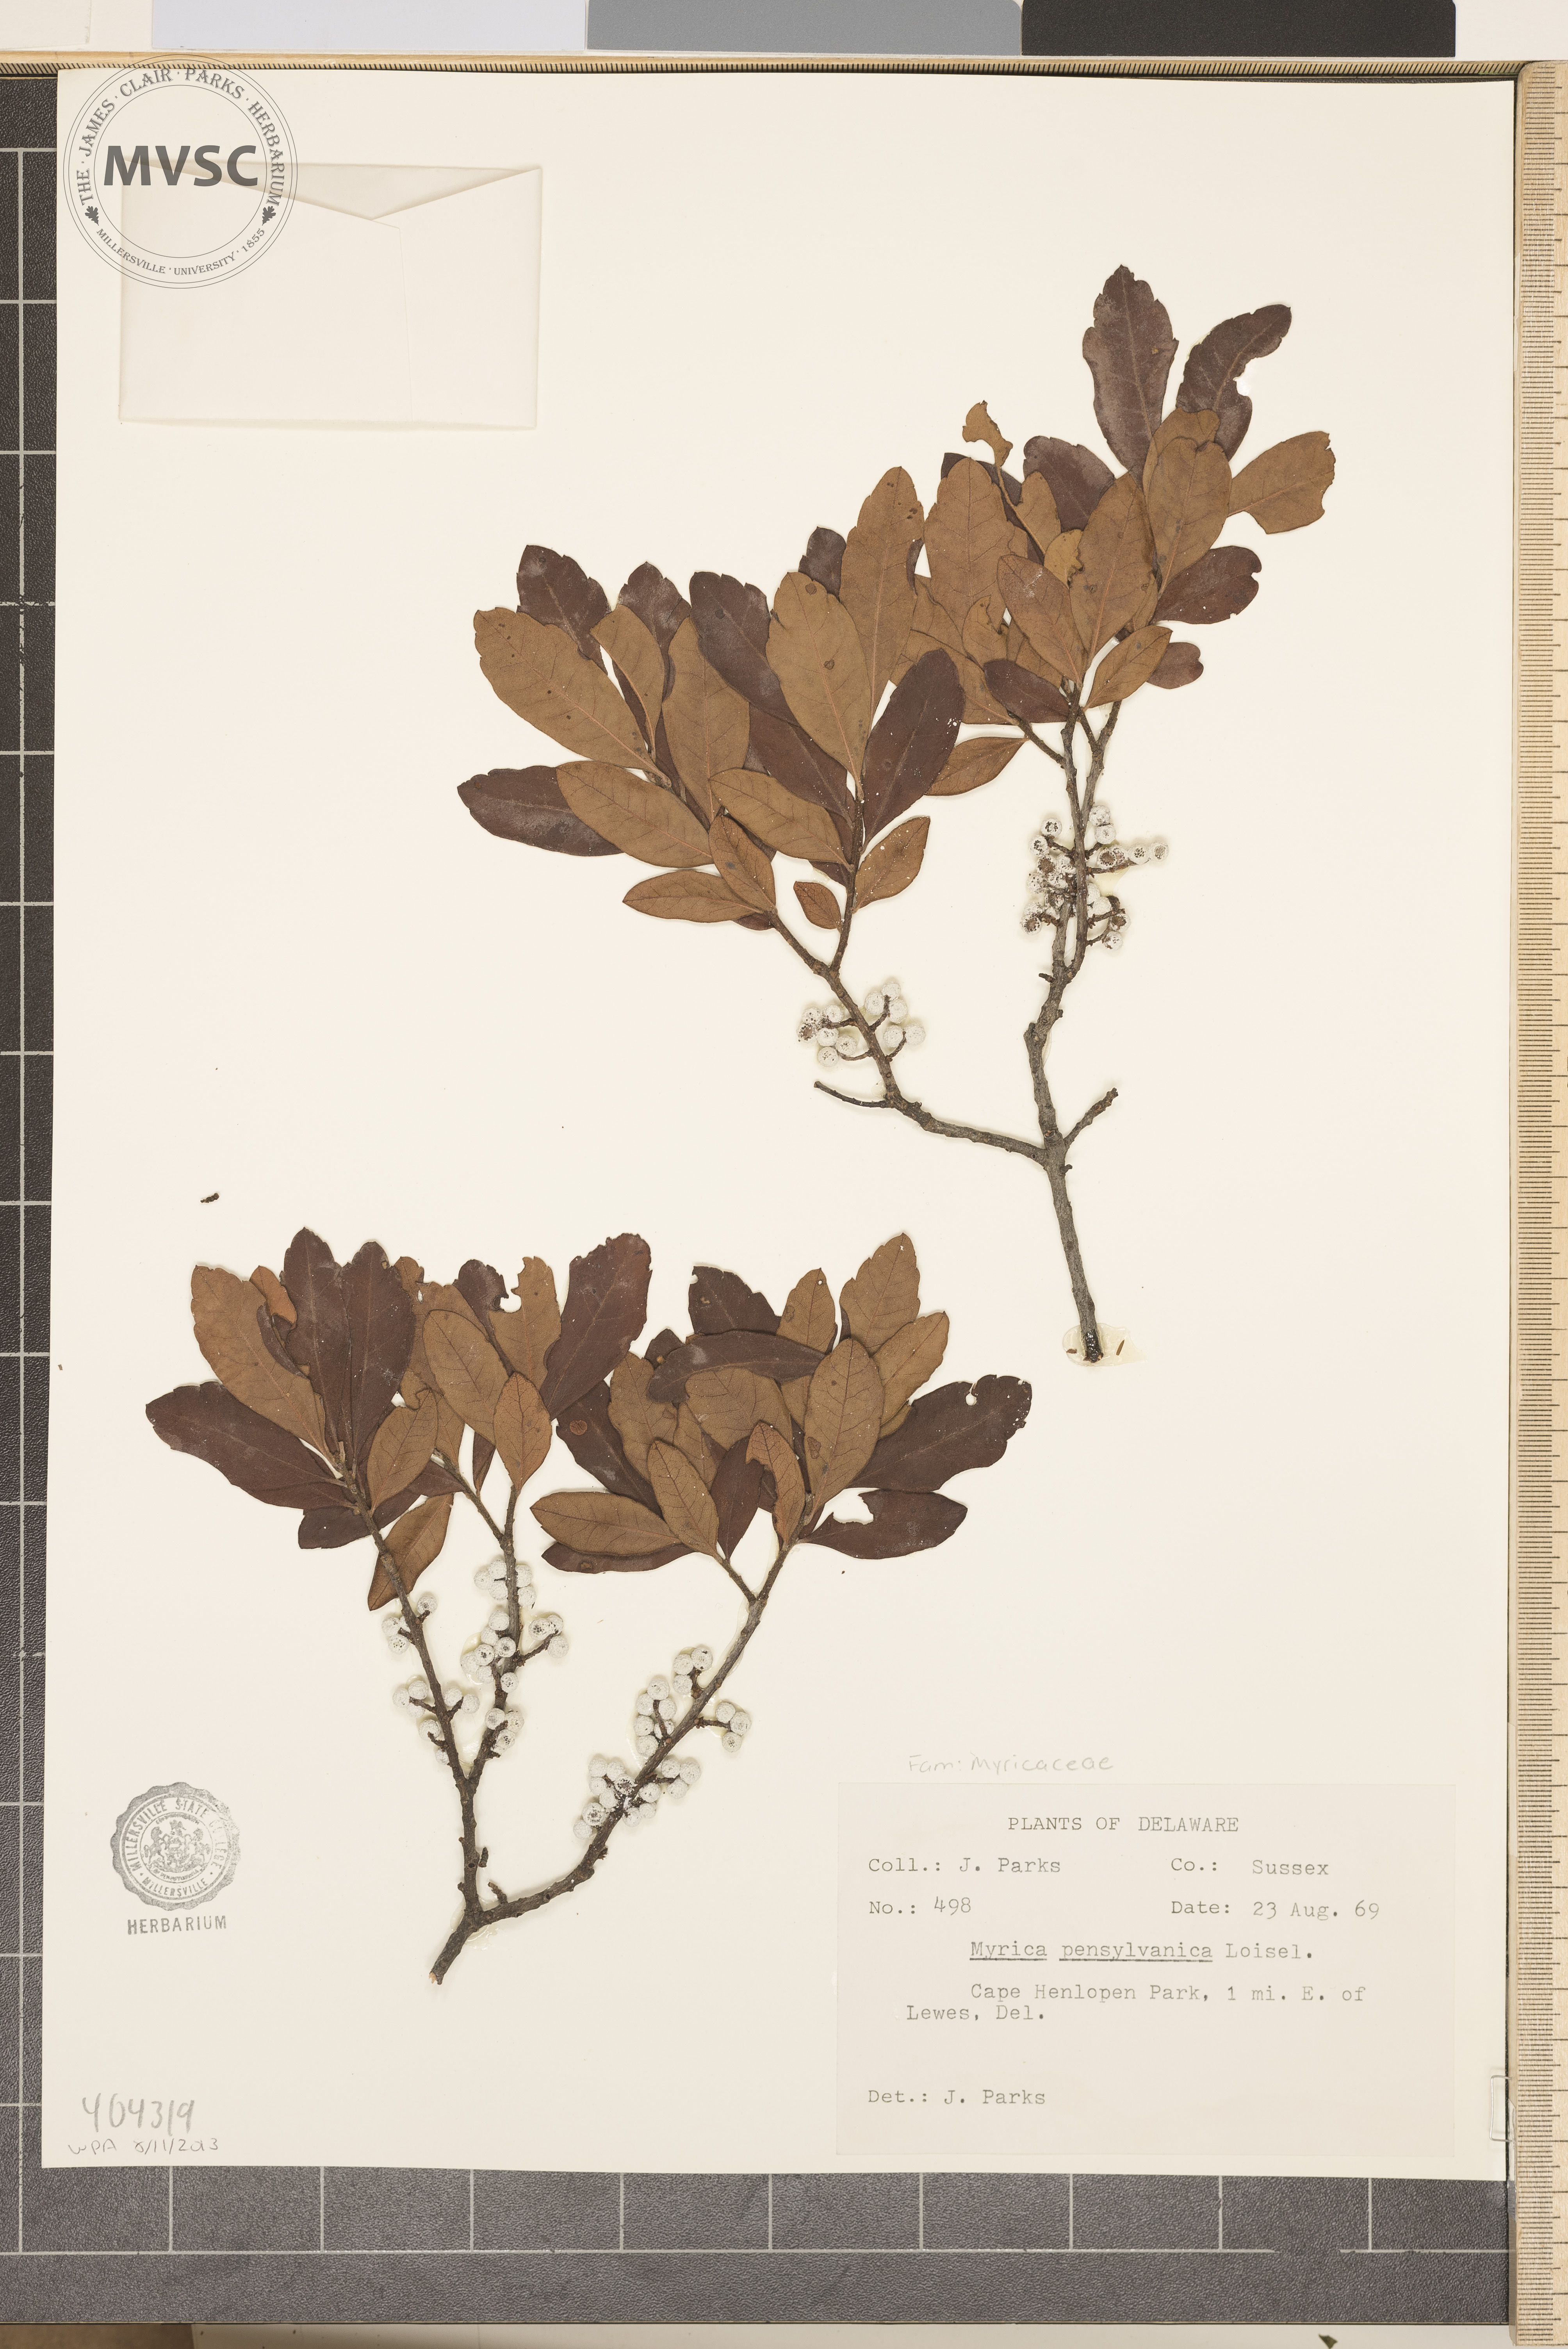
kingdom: Plantae
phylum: Tracheophyta
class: Magnoliopsida
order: Fagales
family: Myricaceae
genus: Morella
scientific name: Morella
